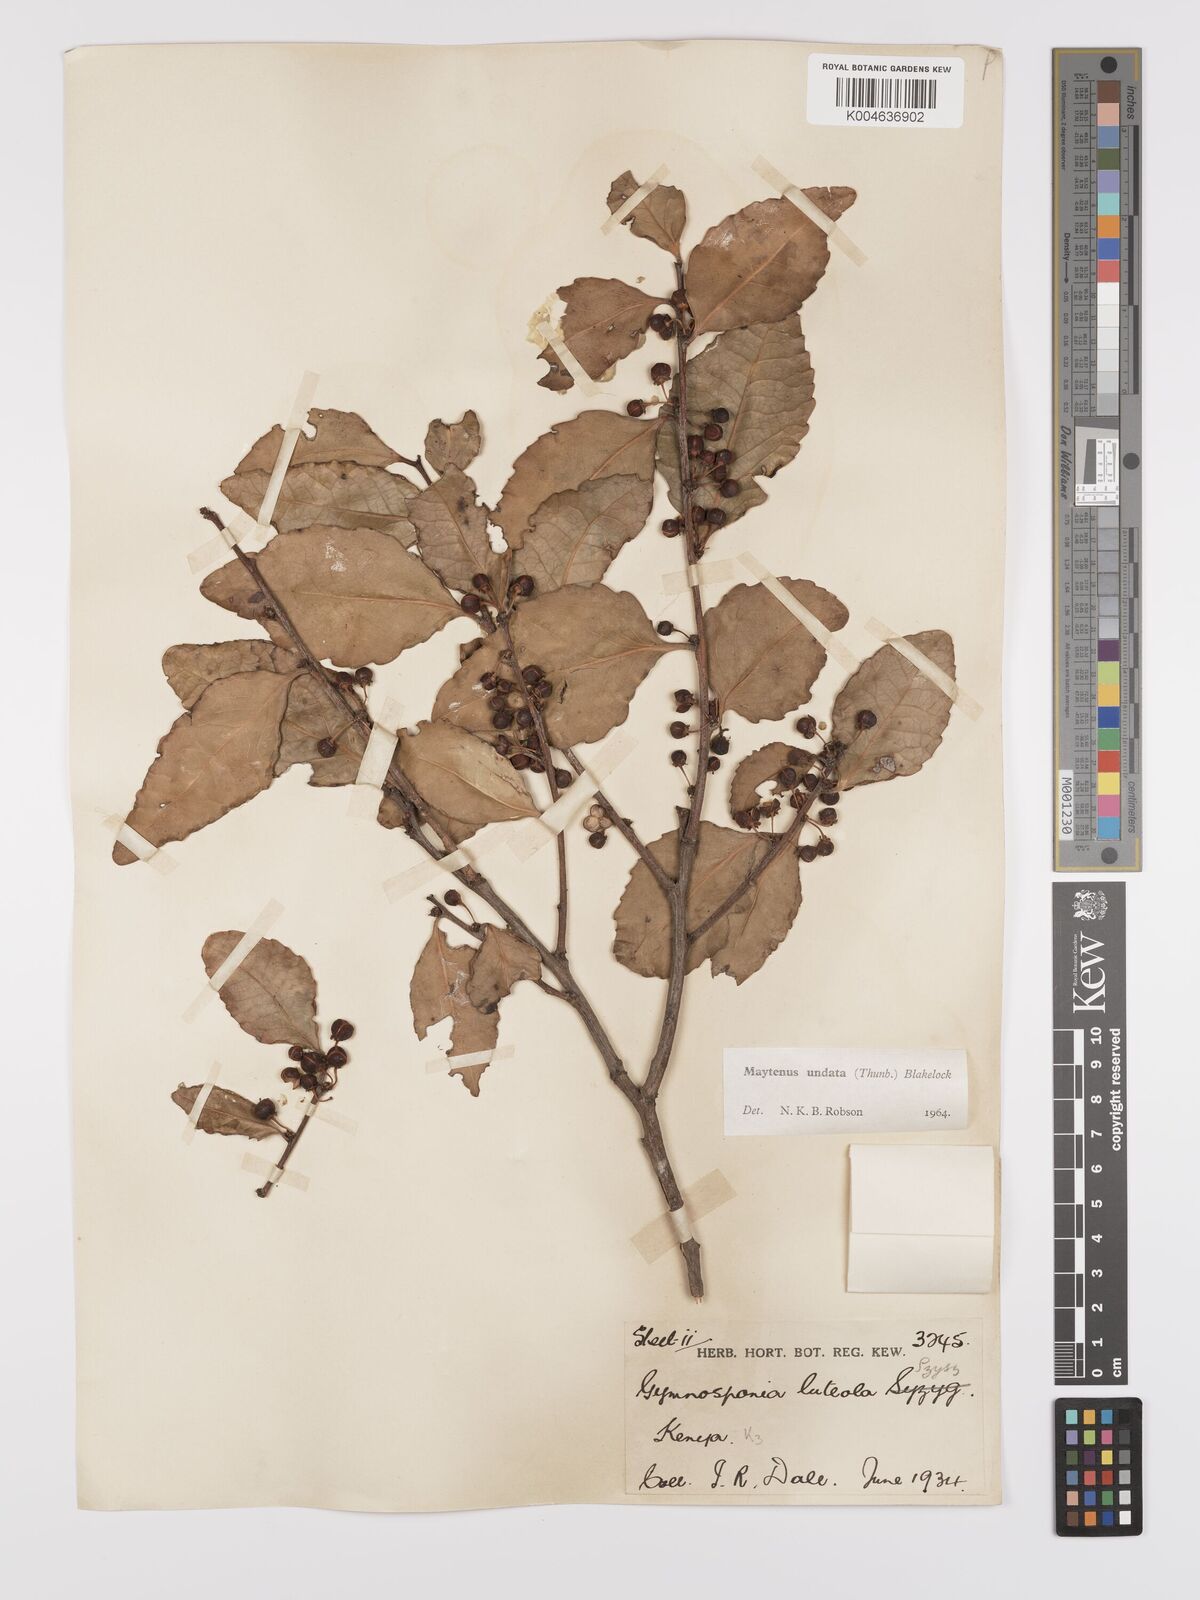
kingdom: Plantae
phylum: Tracheophyta
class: Magnoliopsida
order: Celastrales
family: Celastraceae
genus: Gymnosporia
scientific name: Gymnosporia undata
